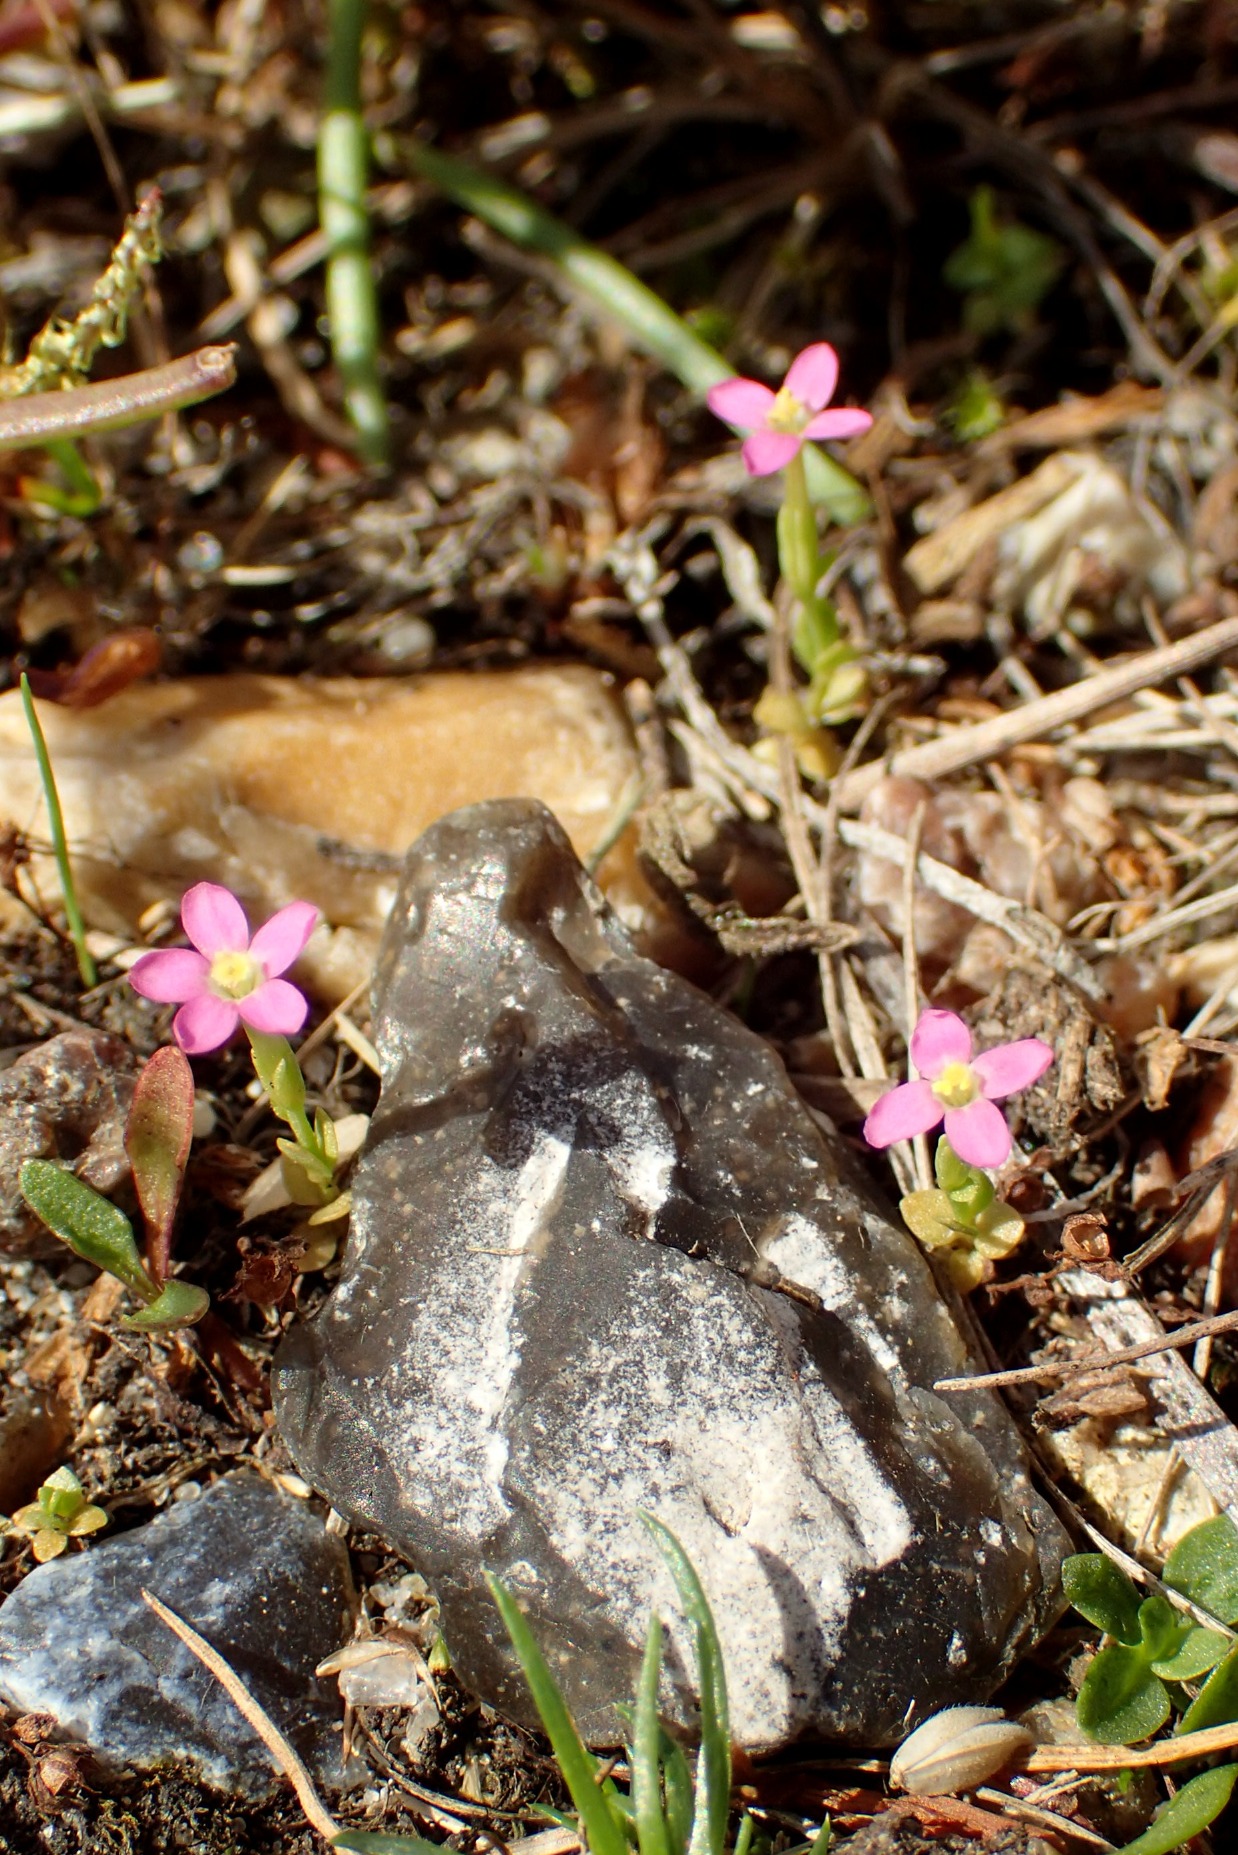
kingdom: Plantae
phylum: Tracheophyta
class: Magnoliopsida
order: Gentianales
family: Gentianaceae
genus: Centaurium
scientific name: Centaurium pulchellum
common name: Liden tusindgylden
